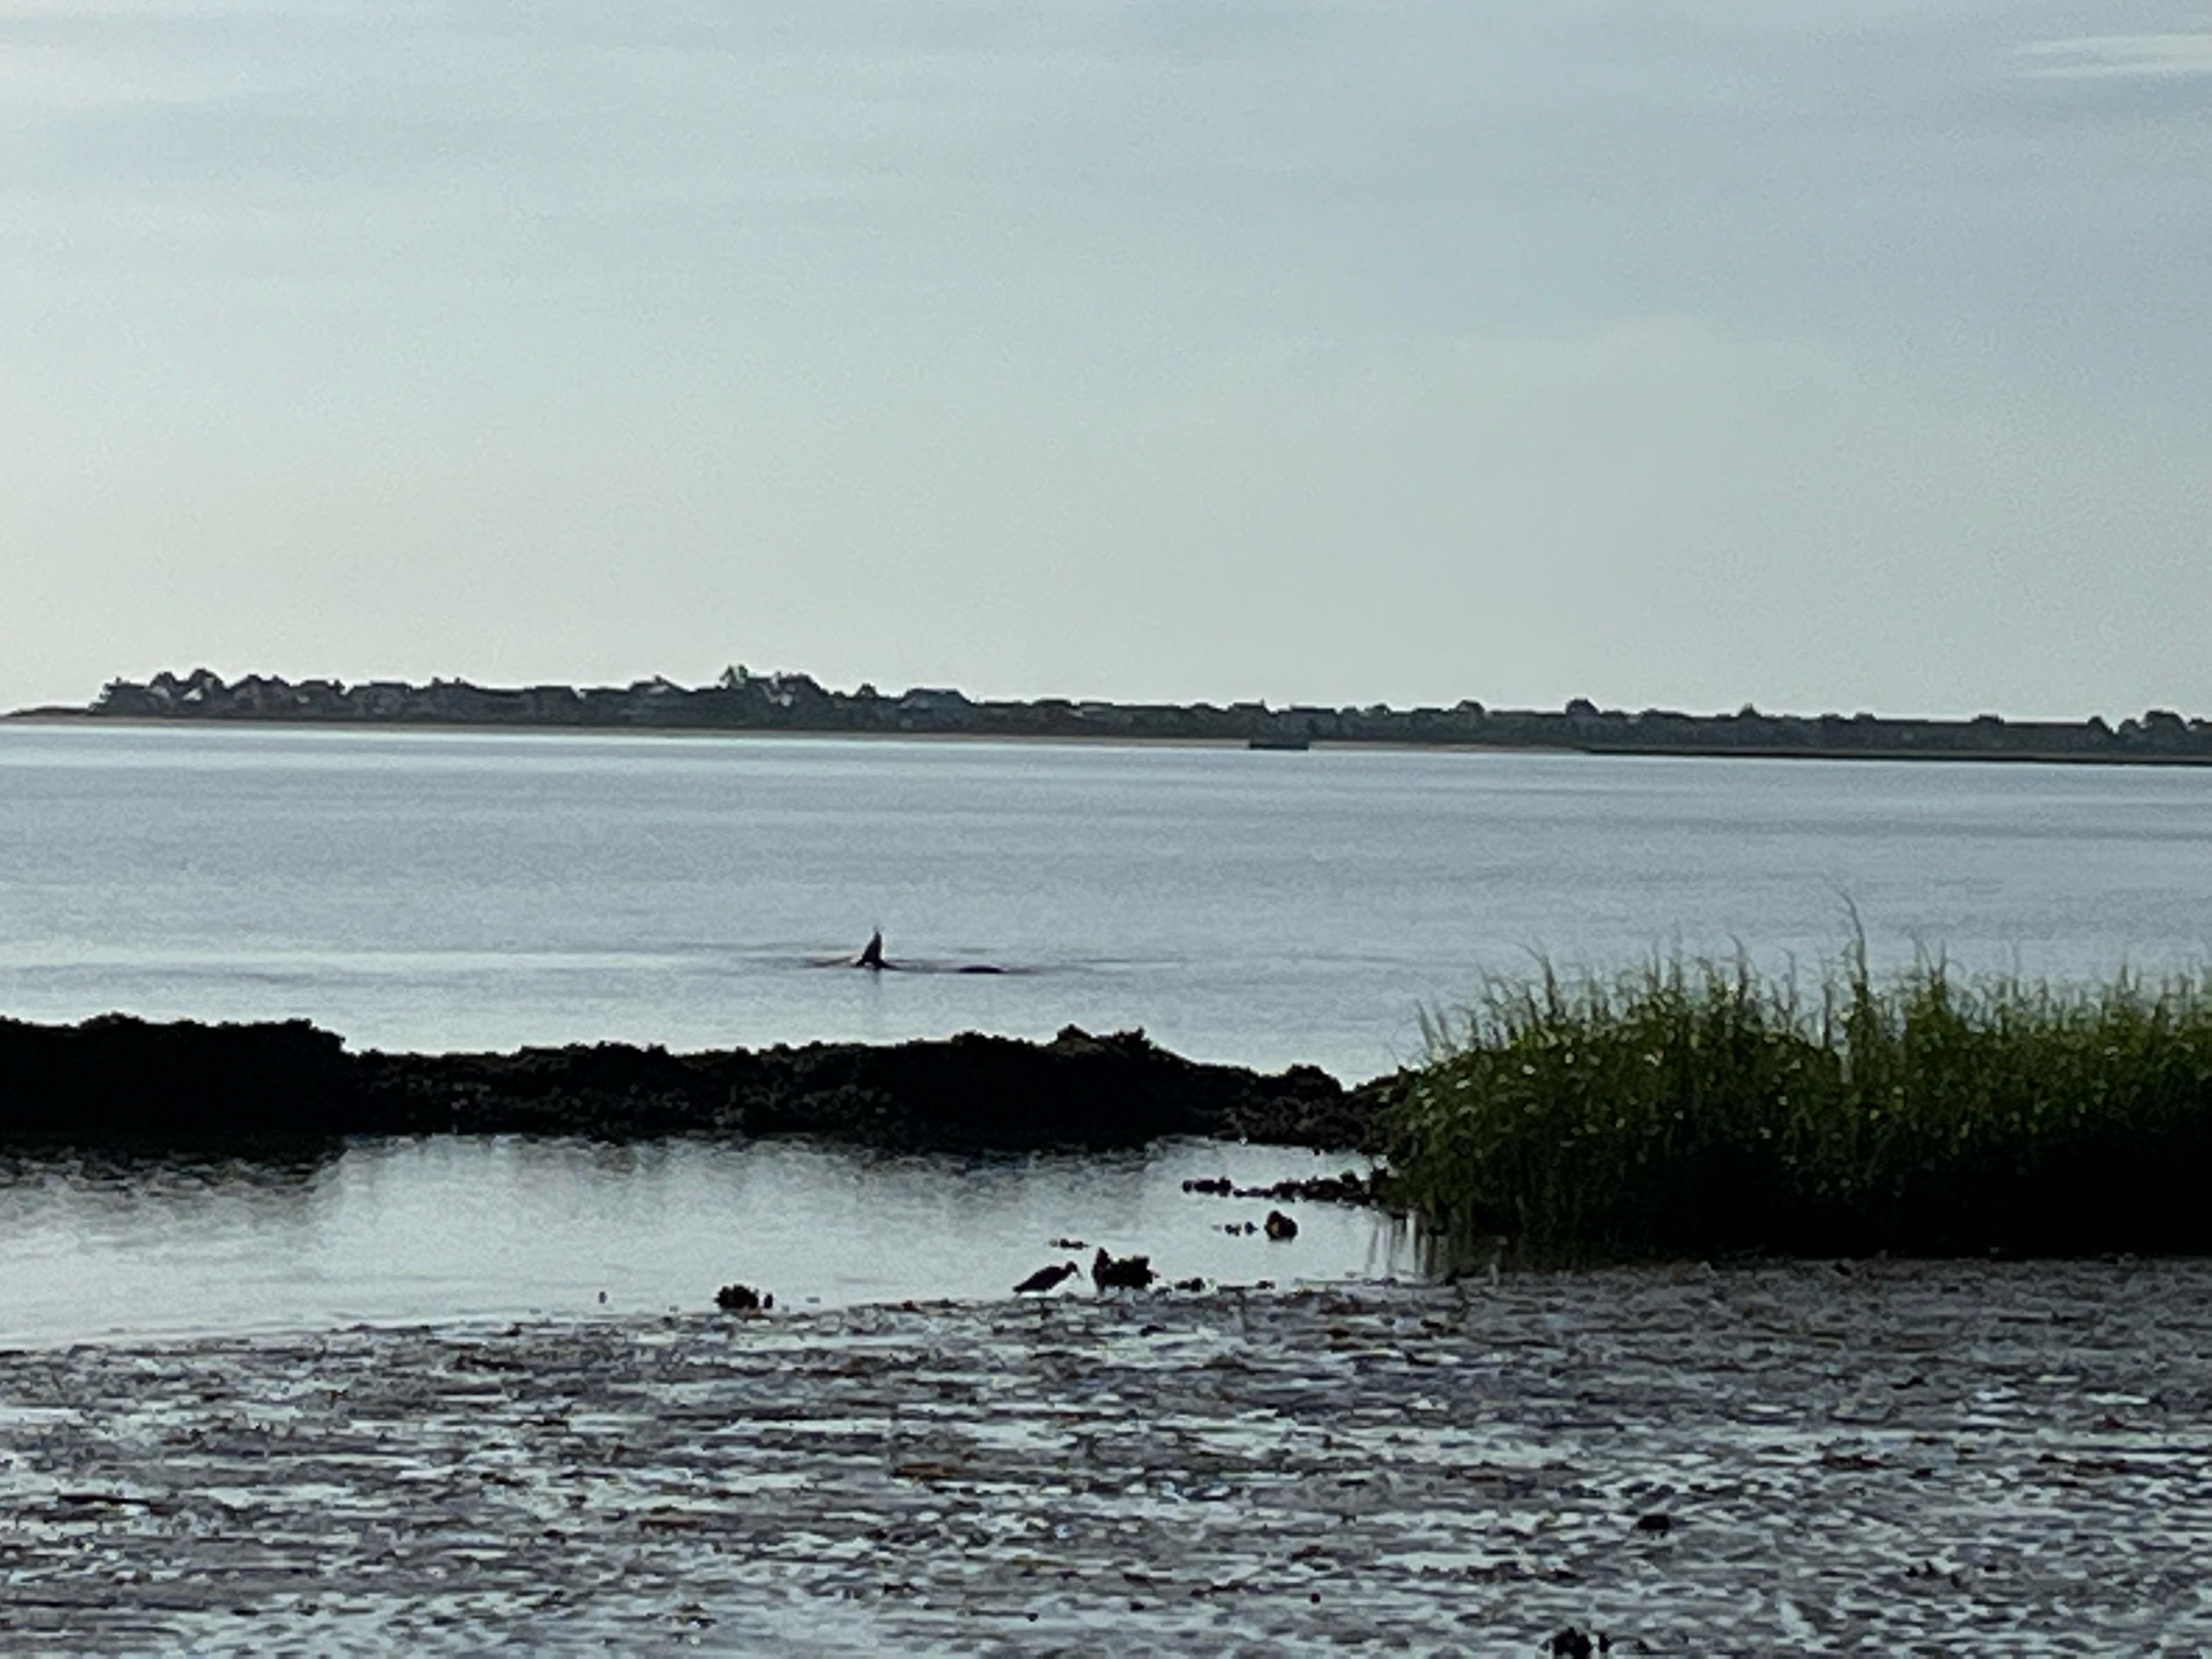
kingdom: Animalia
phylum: Chordata
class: Mammalia
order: Cetacea
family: Delphinidae
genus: Tursiops
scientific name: Tursiops truncatus
